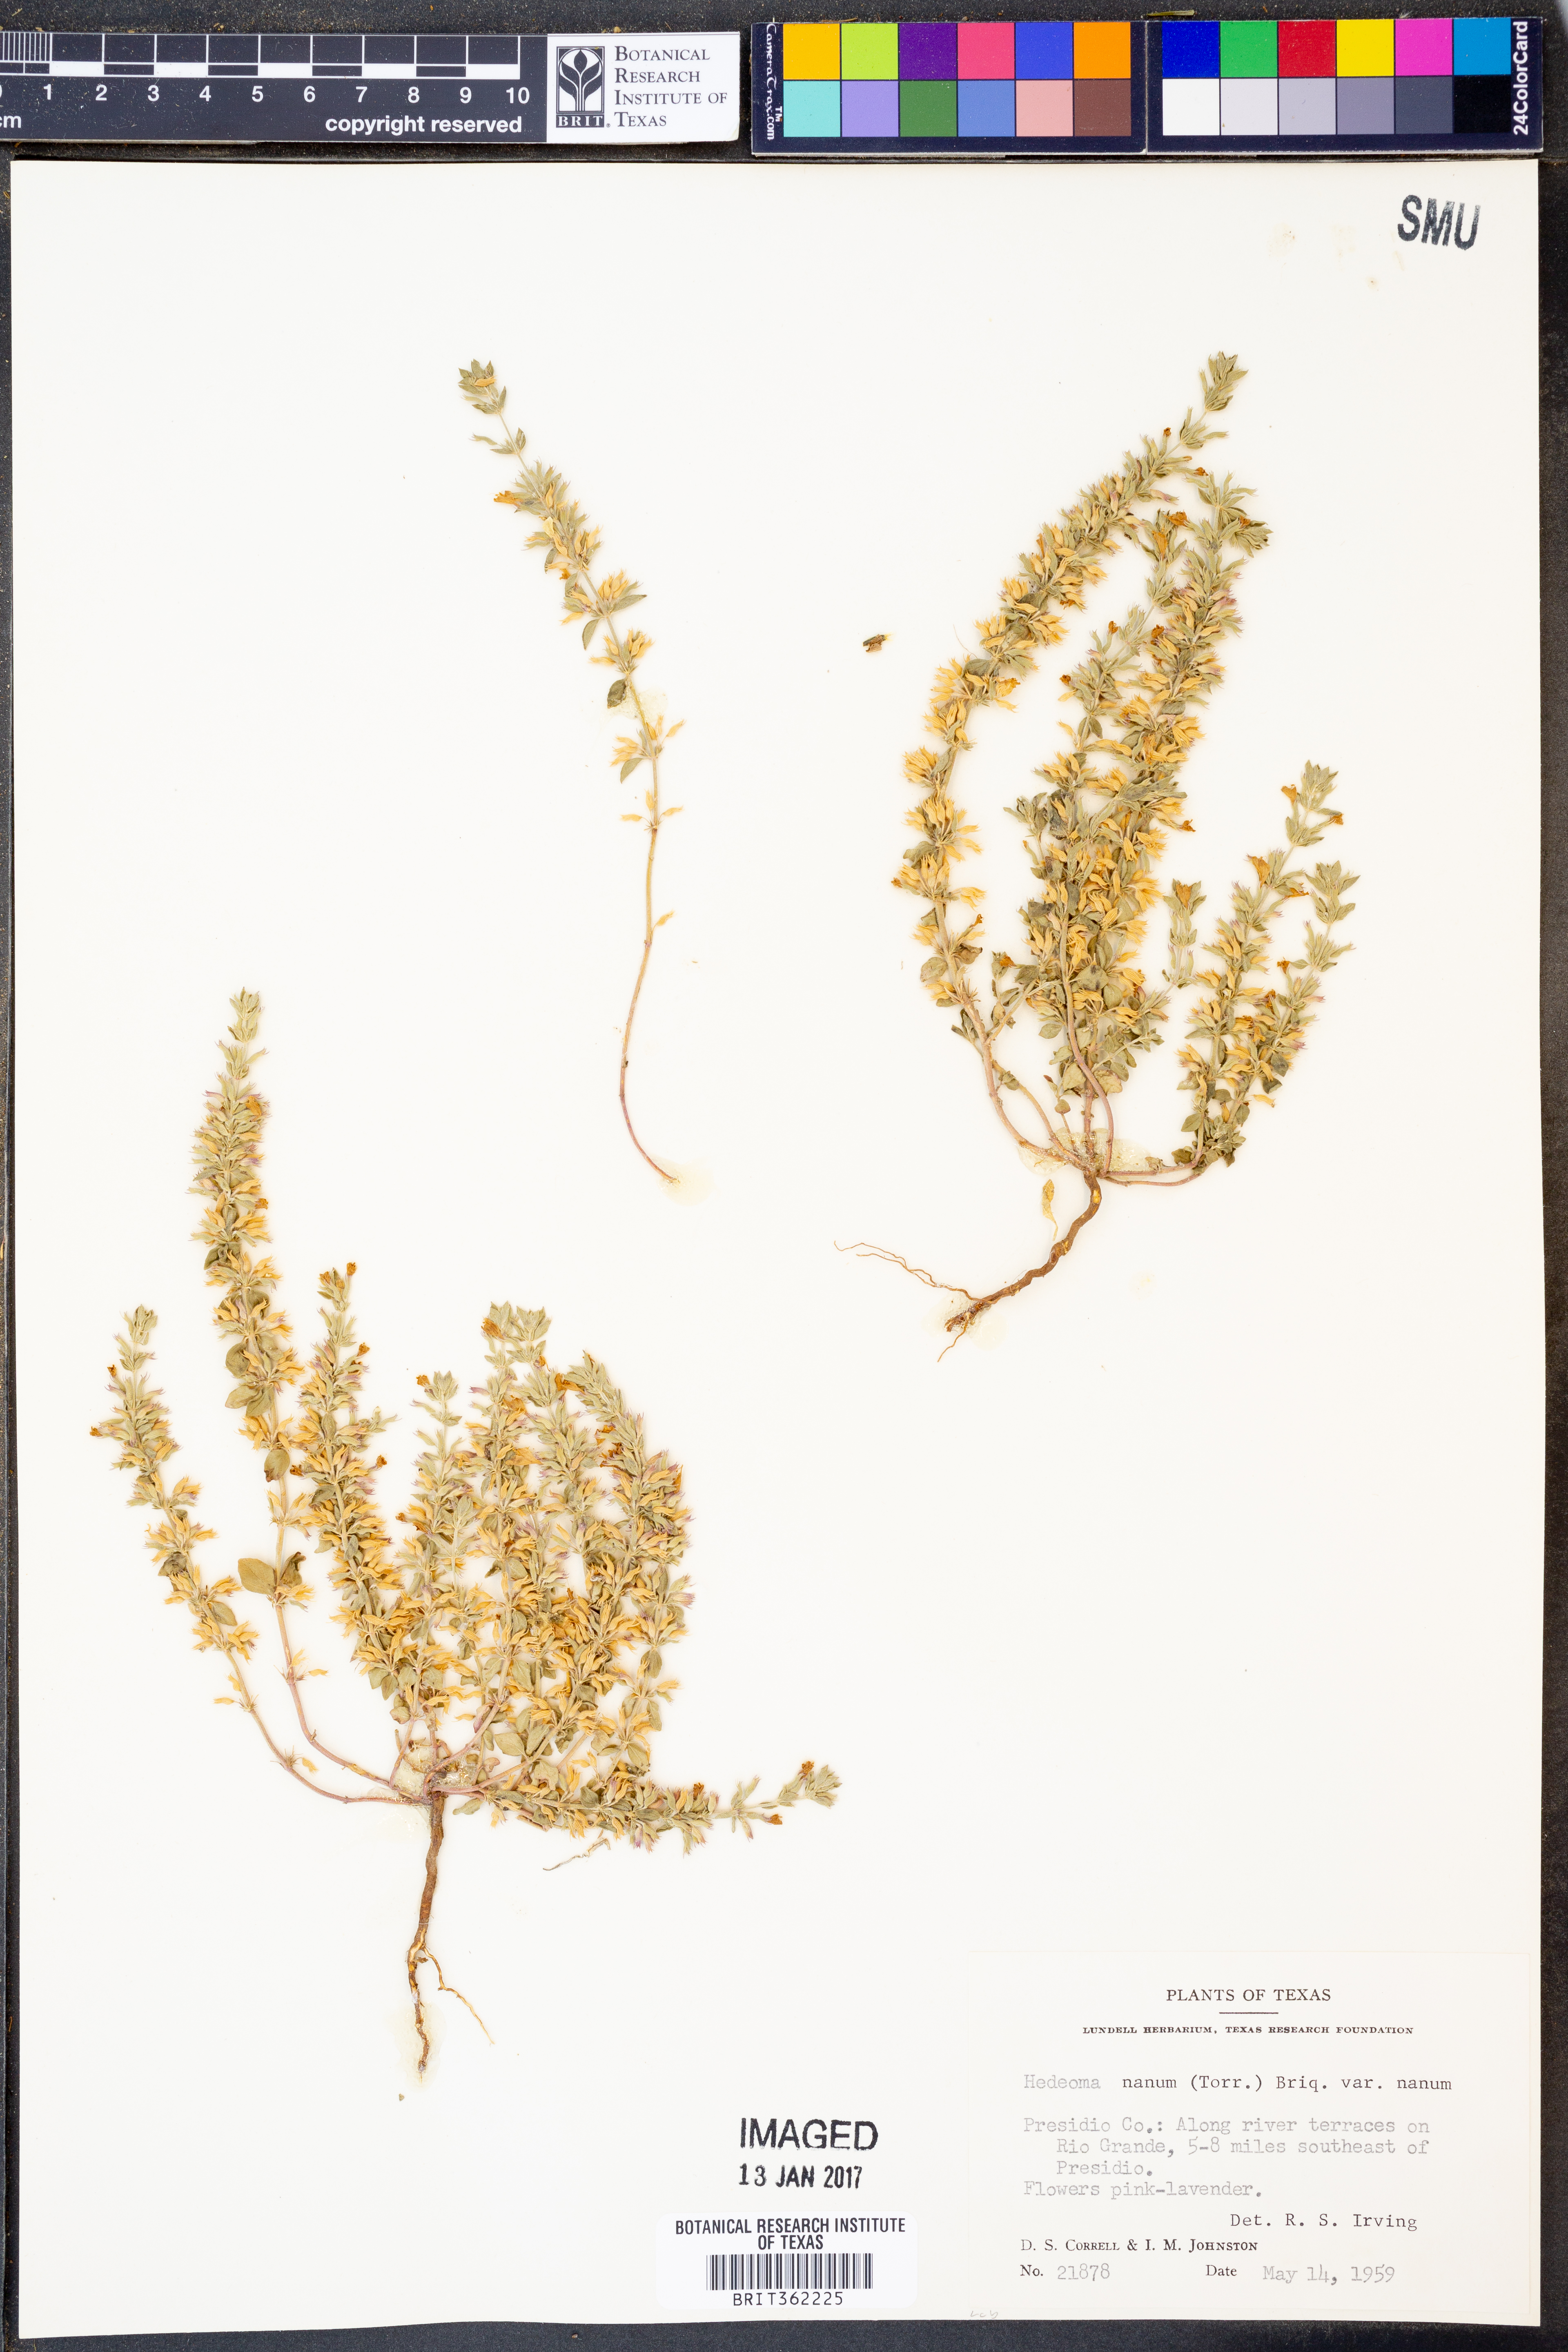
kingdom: Plantae
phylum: Tracheophyta
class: Magnoliopsida
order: Lamiales
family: Lamiaceae
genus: Hedeoma
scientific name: Hedeoma nana
